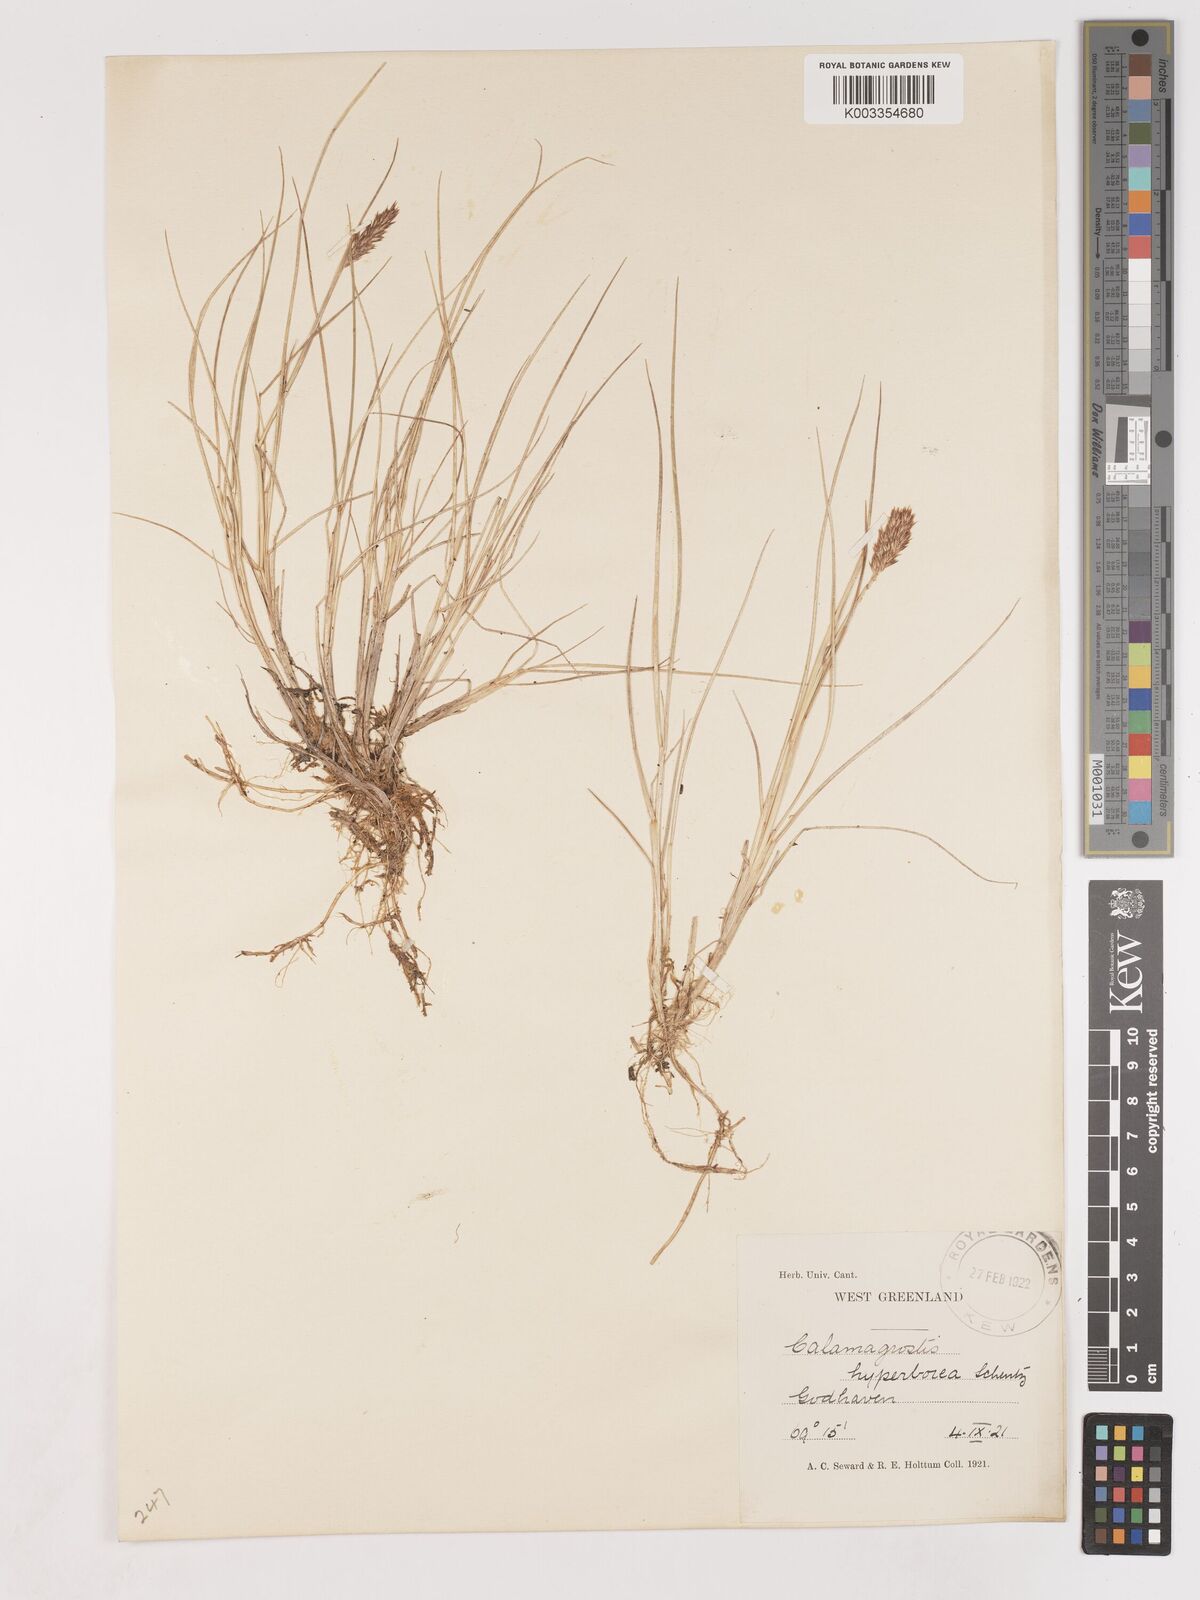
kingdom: Plantae
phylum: Tracheophyta
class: Liliopsida
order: Poales
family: Poaceae
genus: Cinnagrostis
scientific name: Cinnagrostis recta
